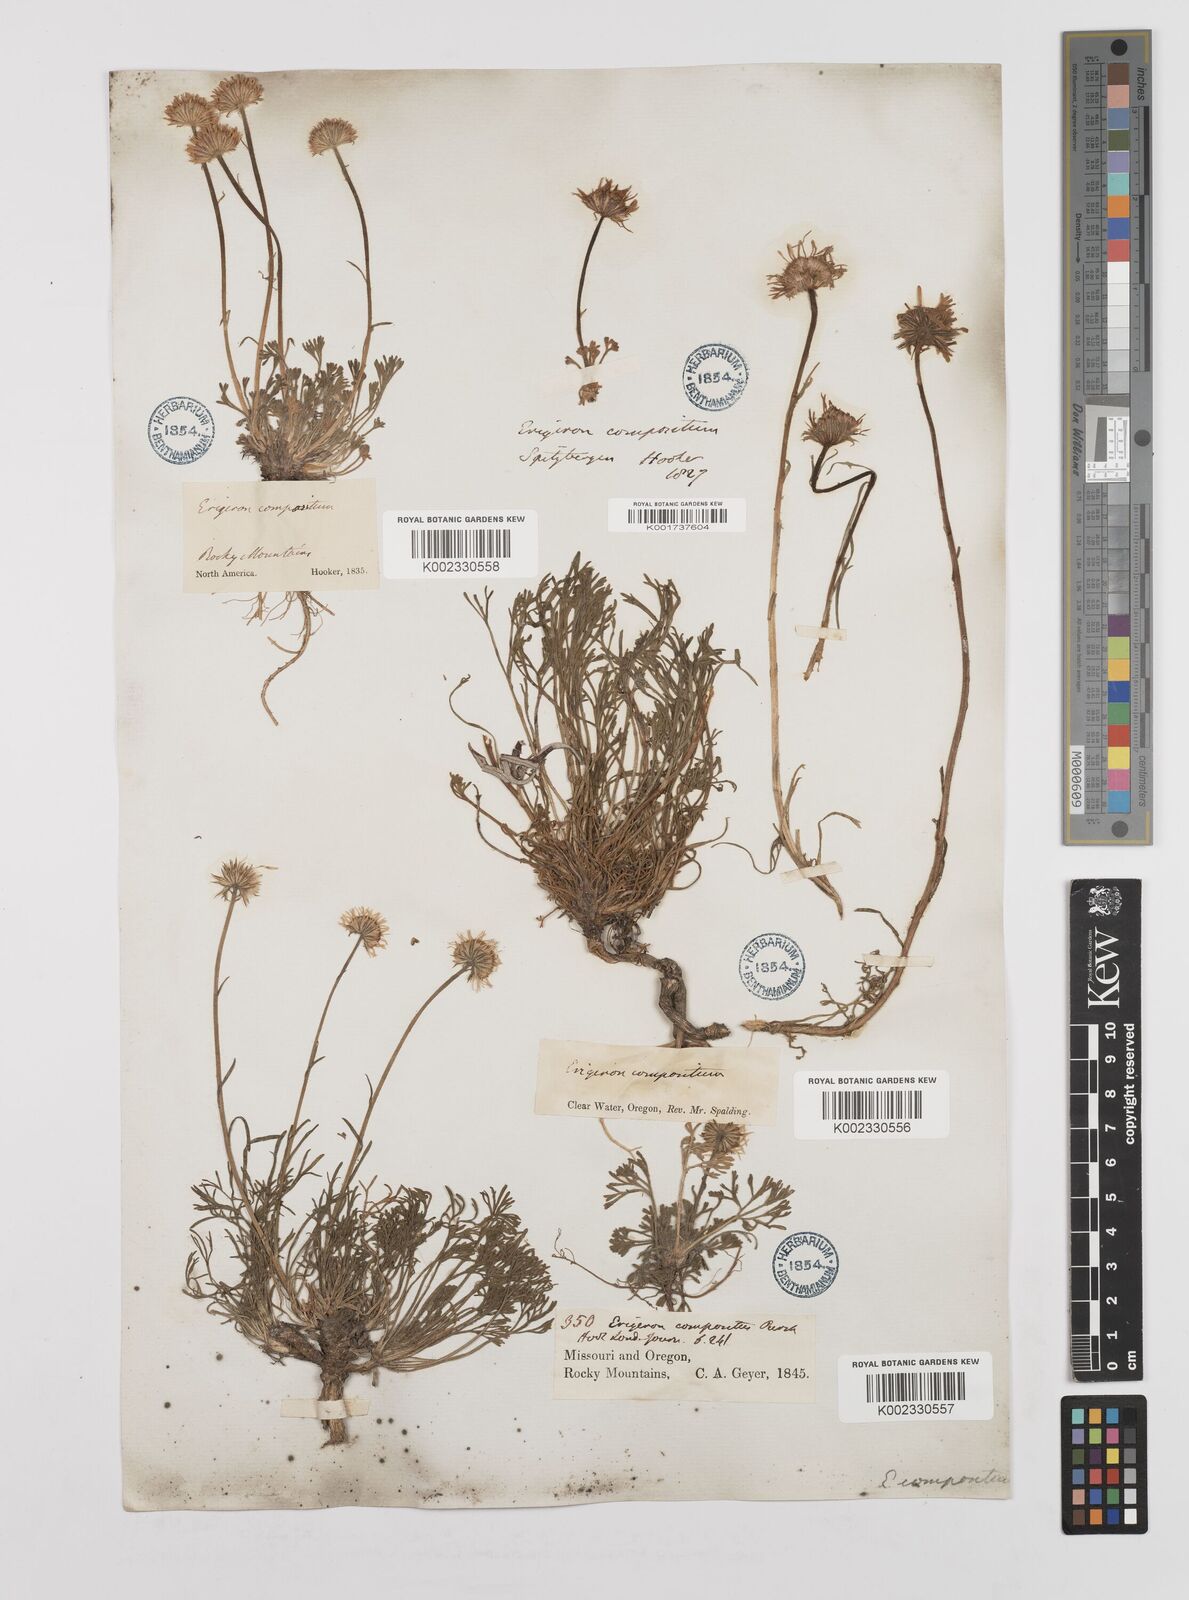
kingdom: Plantae
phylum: Tracheophyta
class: Magnoliopsida
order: Asterales
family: Asteraceae
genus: Erigeron
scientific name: Erigeron compositus
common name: Dwarf mountain fleabane
